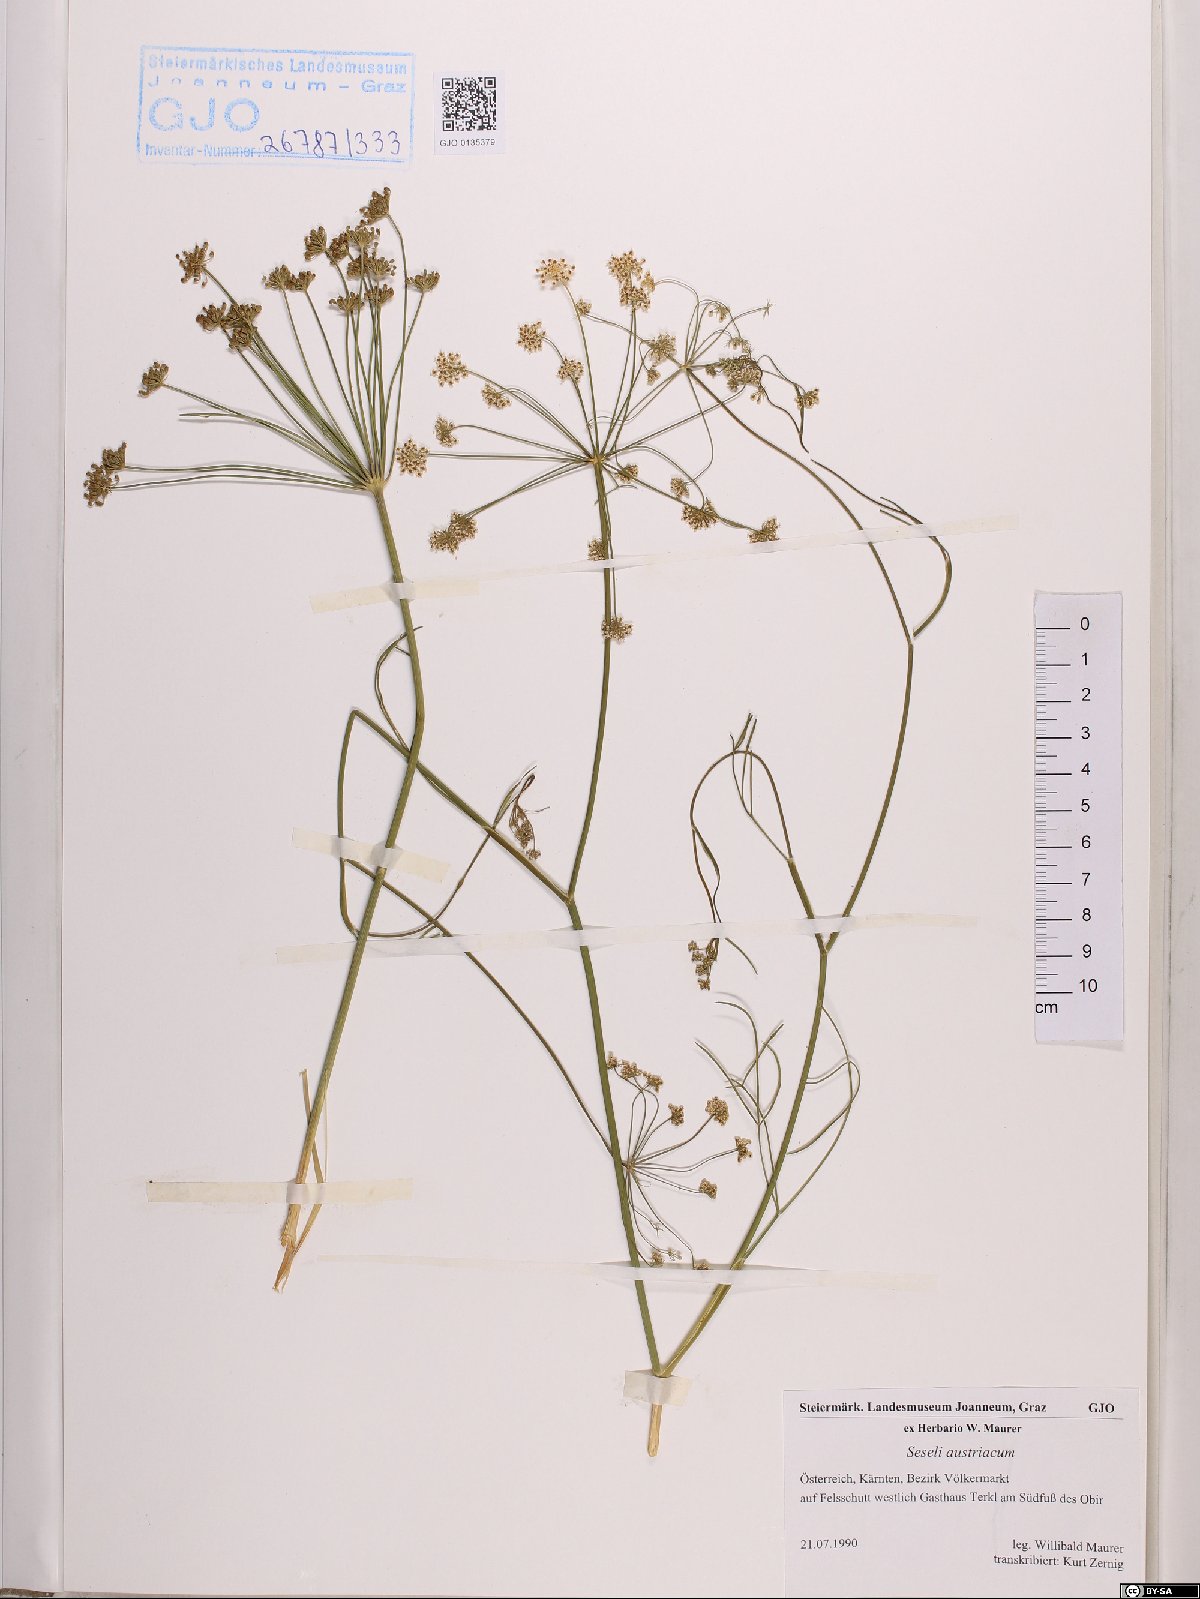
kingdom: Plantae
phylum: Tracheophyta
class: Magnoliopsida
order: Apiales
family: Apiaceae
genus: Seseli
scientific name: Seseli austriacum
